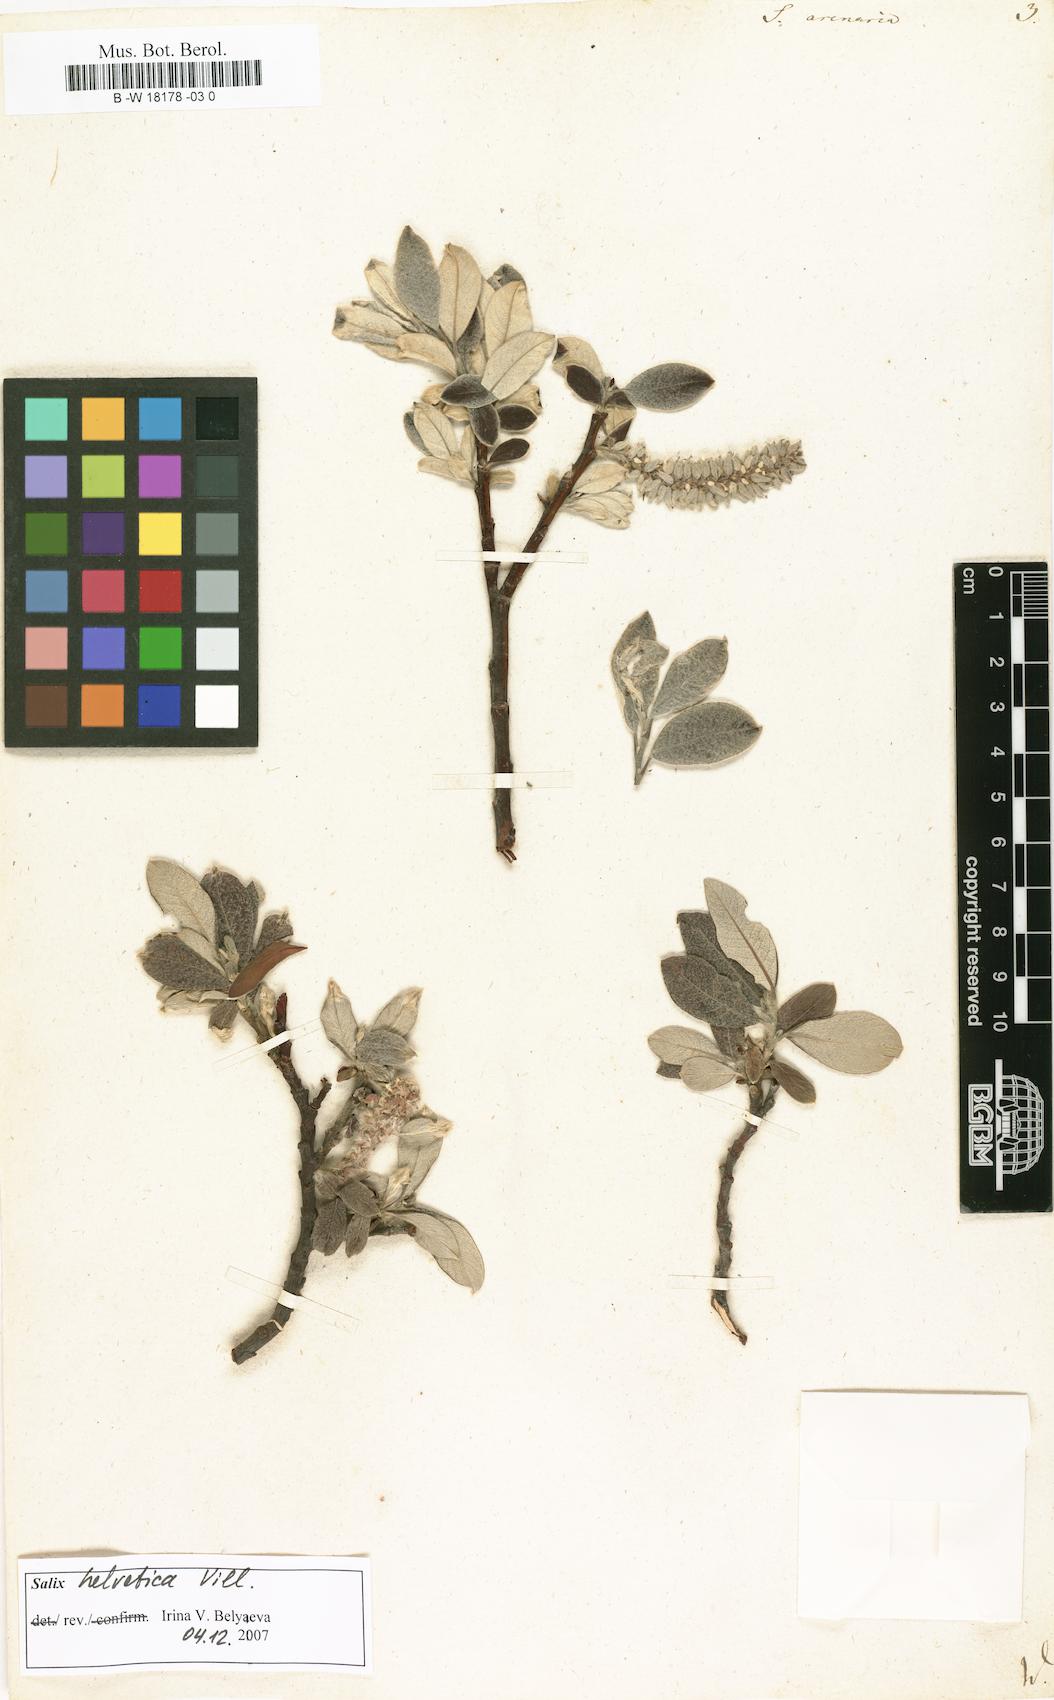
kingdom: Plantae
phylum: Tracheophyta
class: Magnoliopsida
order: Malpighiales
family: Salicaceae
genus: Salix
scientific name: Salix repens
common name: Creeping willow
